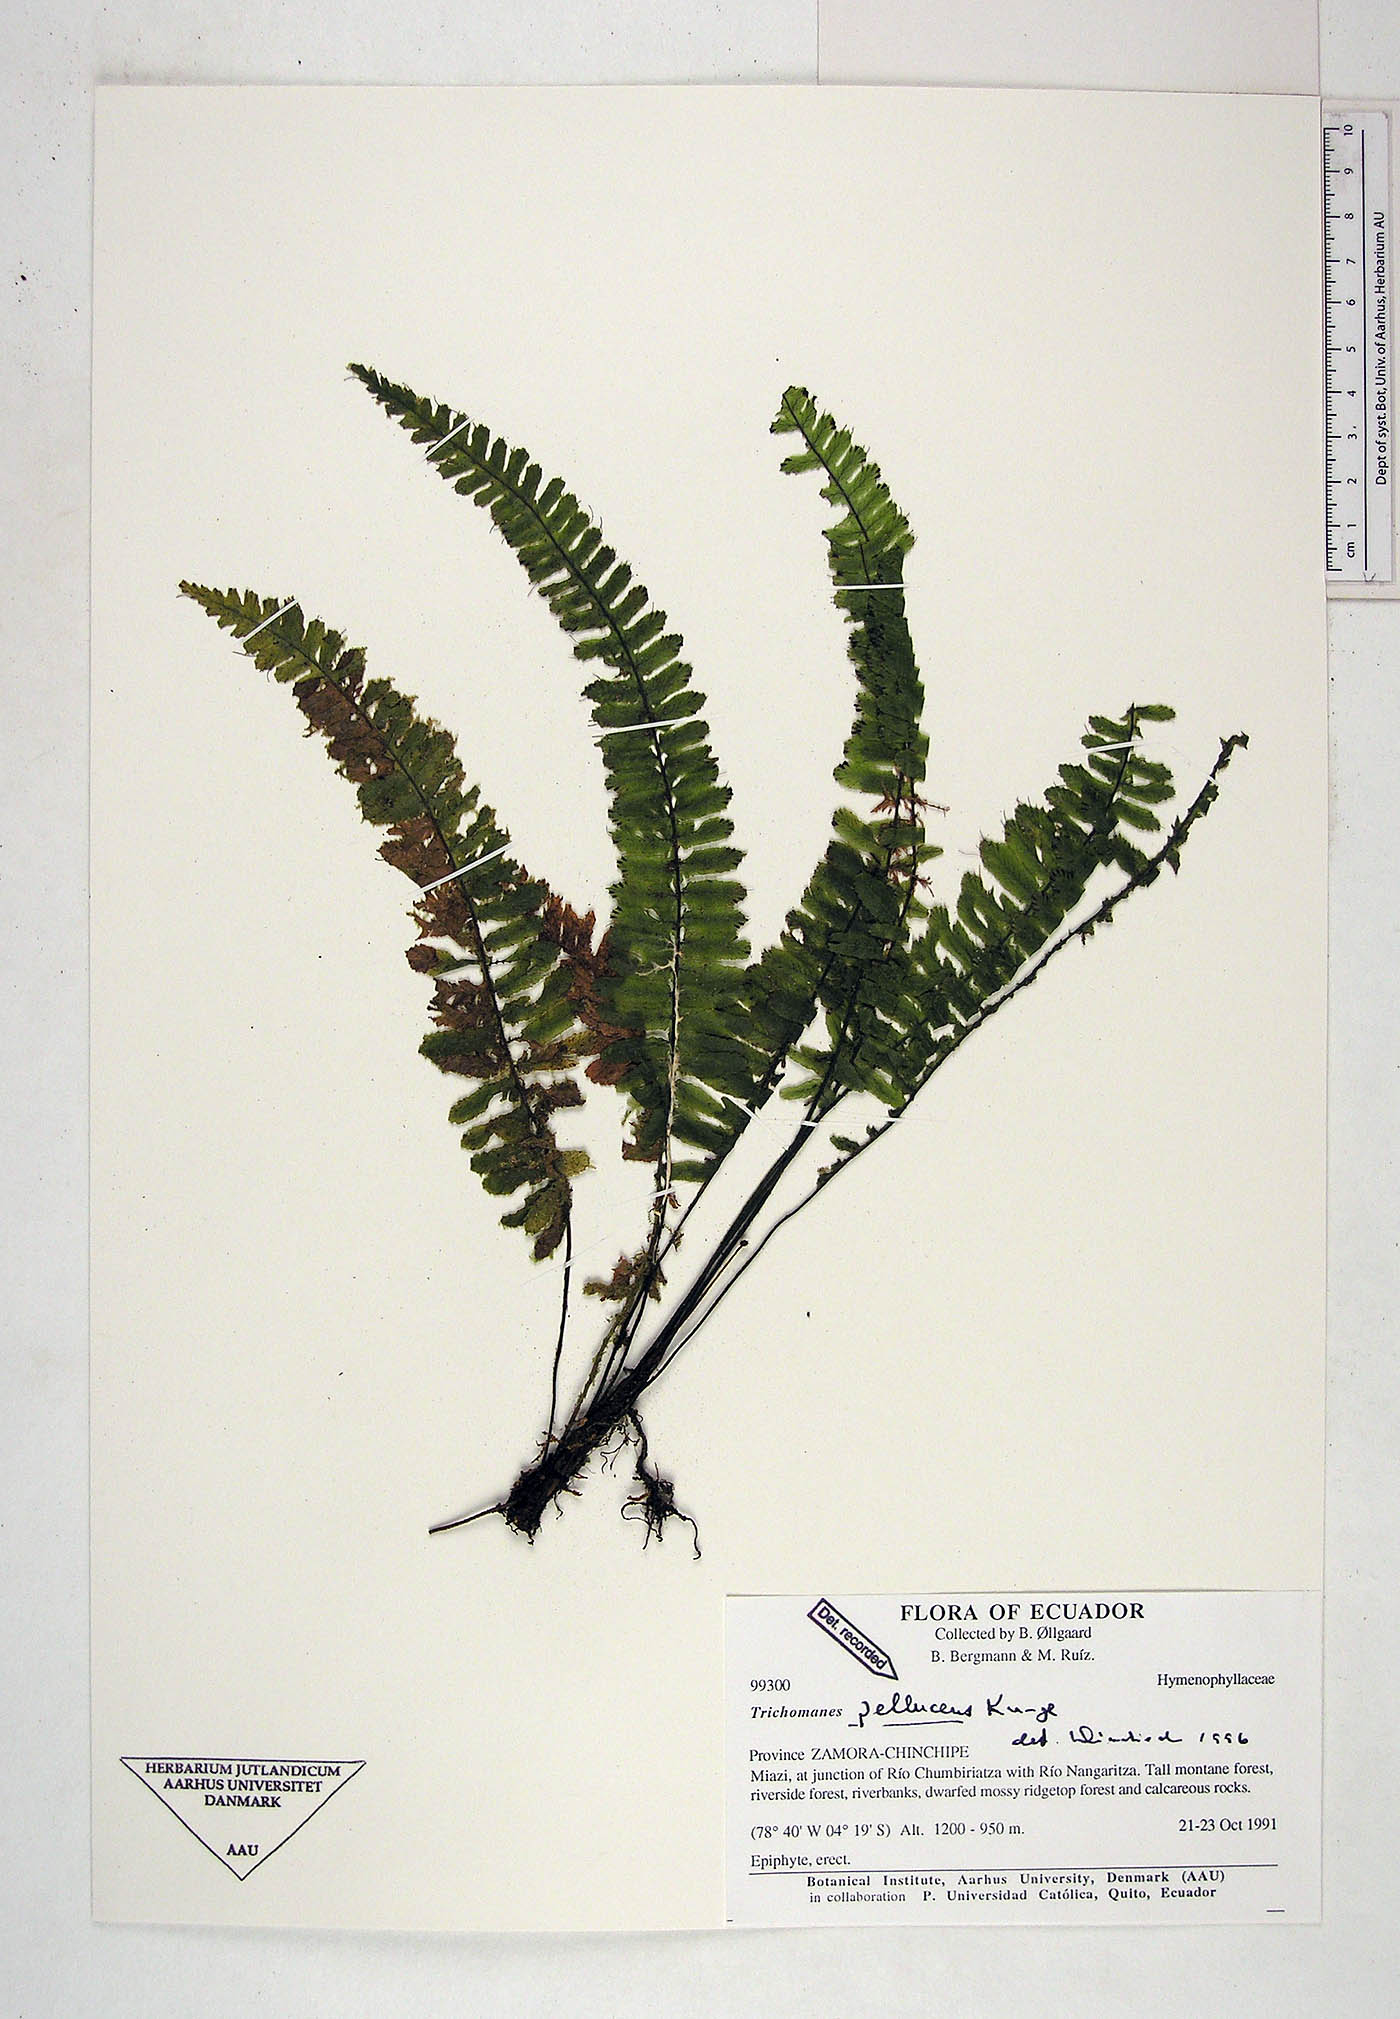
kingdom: Plantae
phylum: Tracheophyta
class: Polypodiopsida
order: Hymenophyllales
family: Hymenophyllaceae
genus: Trichomanes
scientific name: Trichomanes pellucens
